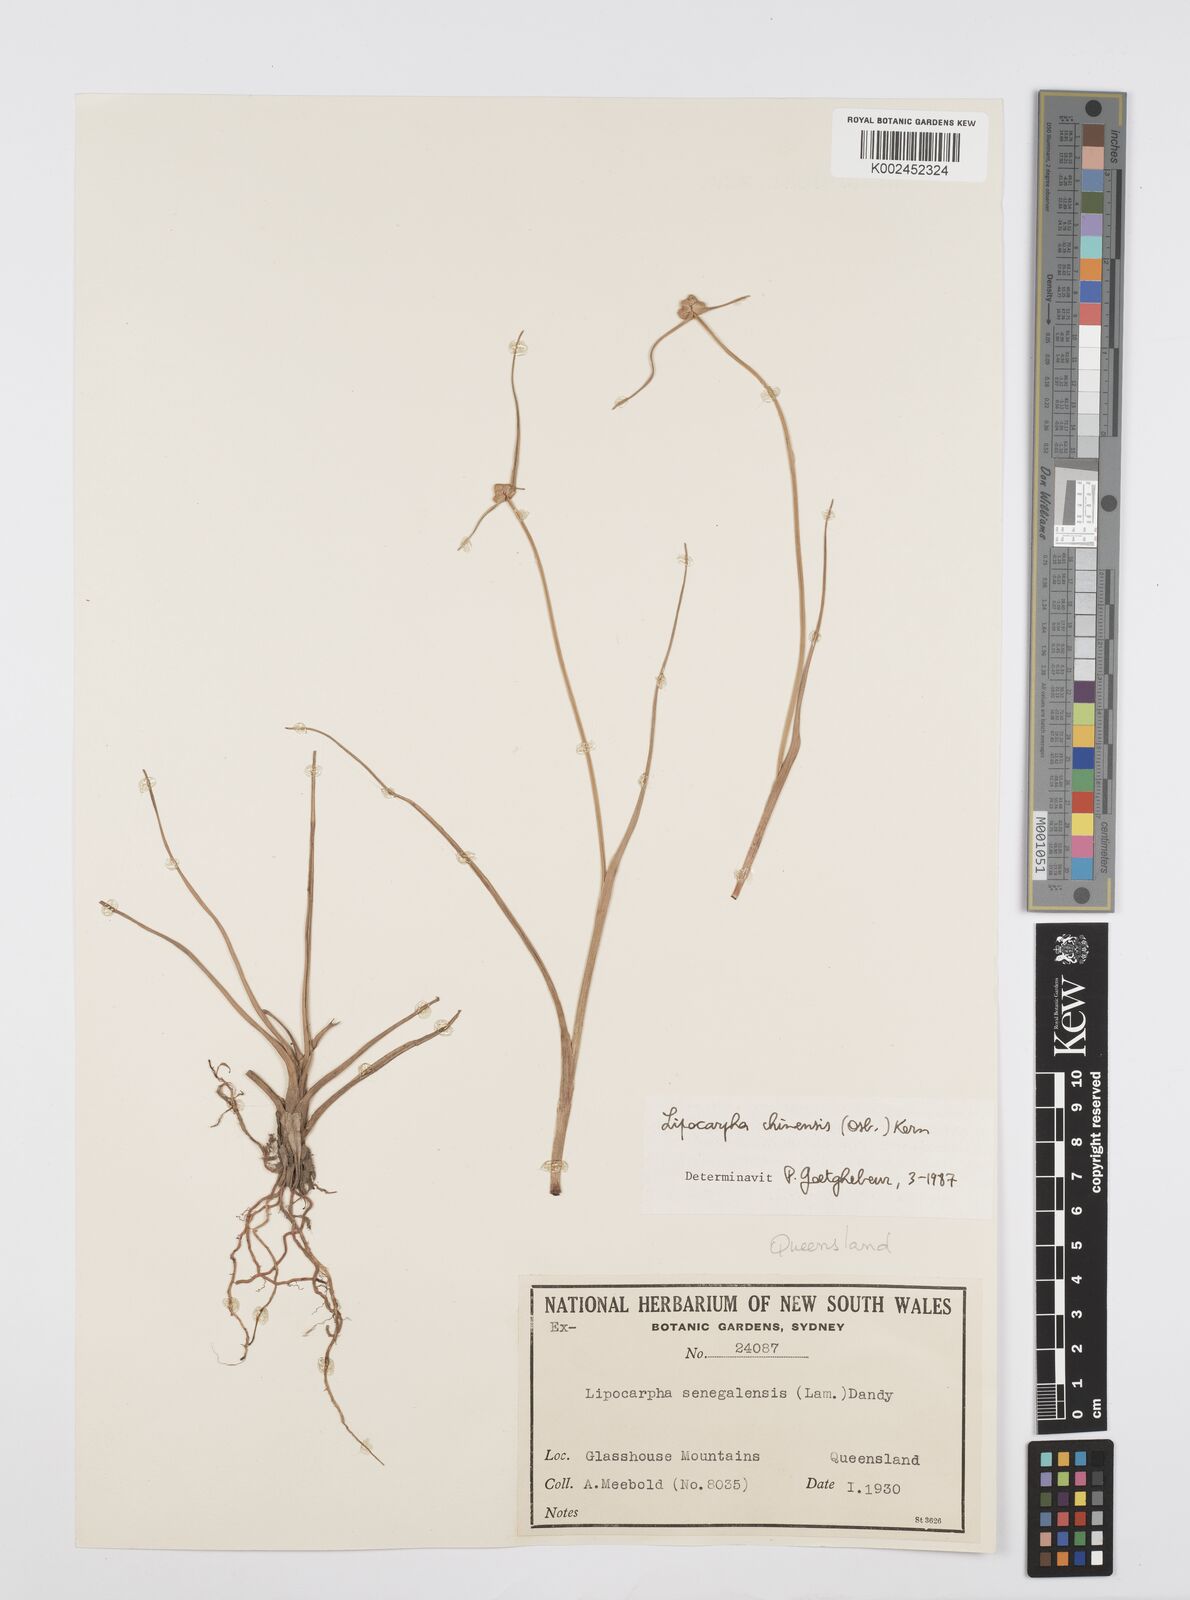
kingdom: Plantae
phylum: Tracheophyta
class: Liliopsida
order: Poales
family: Cyperaceae
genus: Cyperus
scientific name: Cyperus
